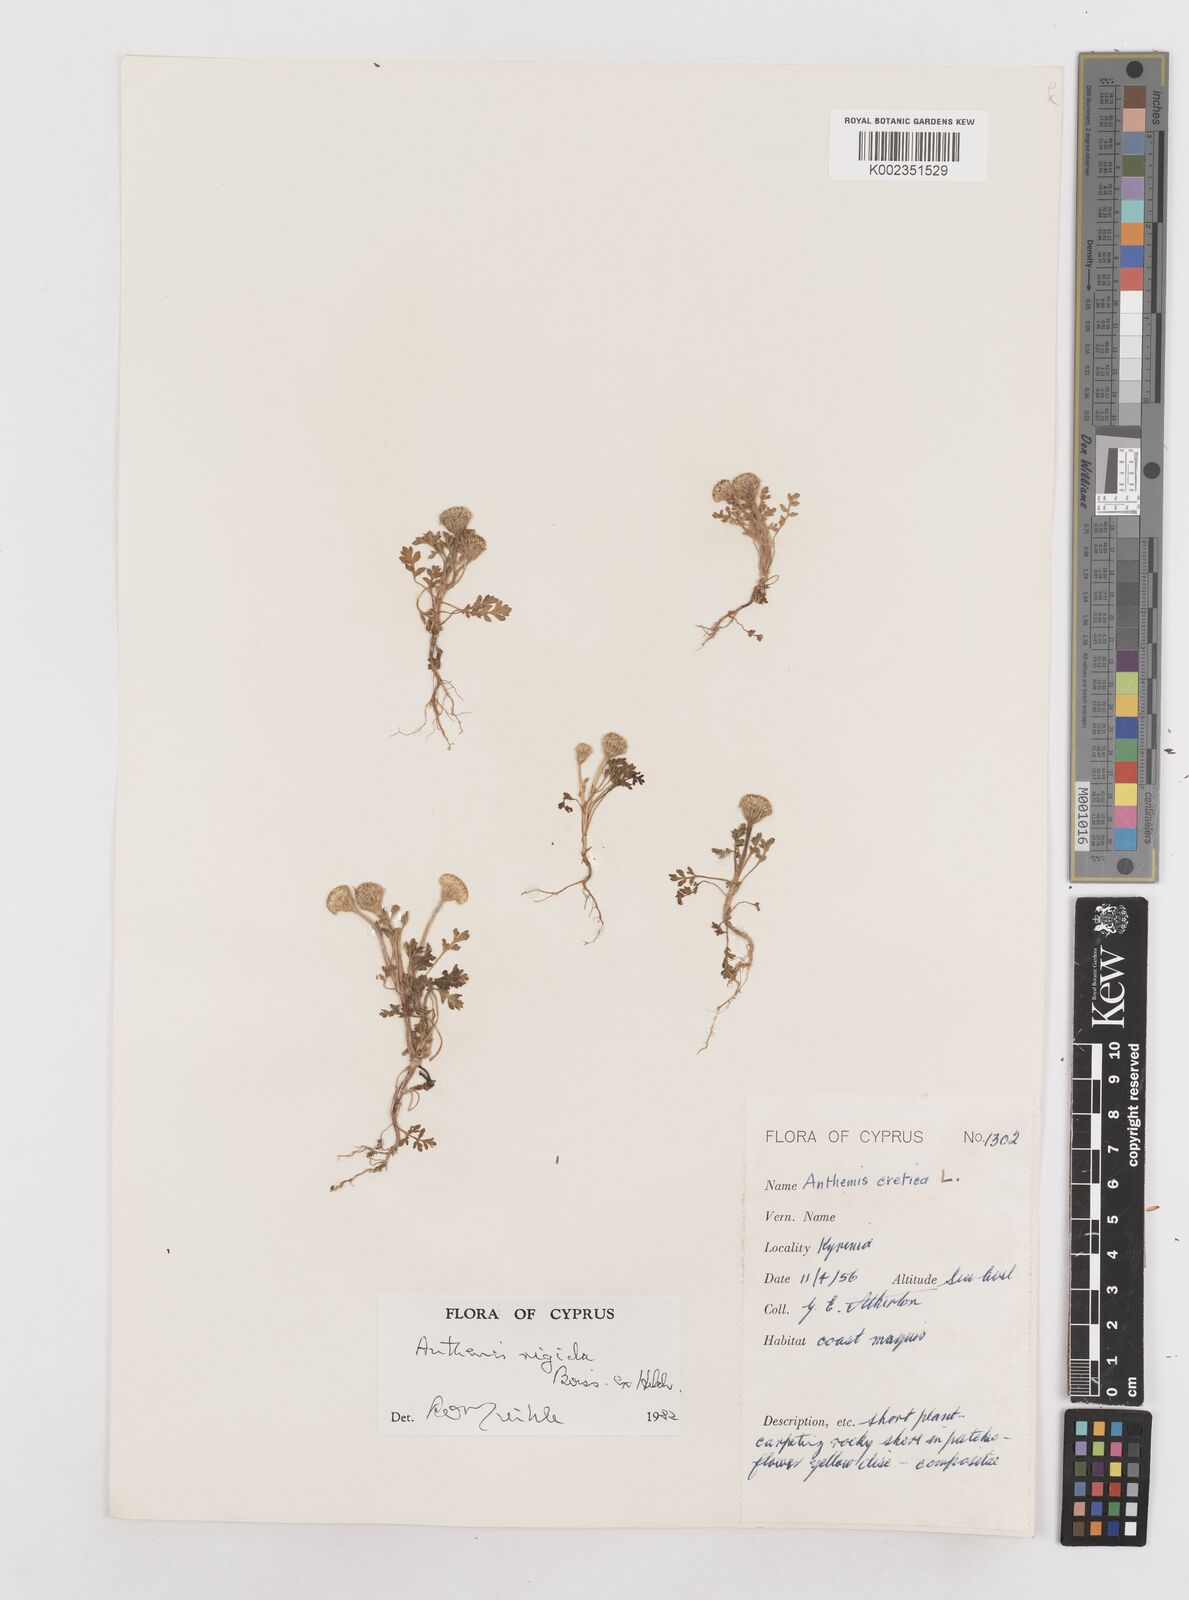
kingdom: Plantae
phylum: Tracheophyta
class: Magnoliopsida
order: Asterales
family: Asteraceae
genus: Anthemis
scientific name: Anthemis rigida
